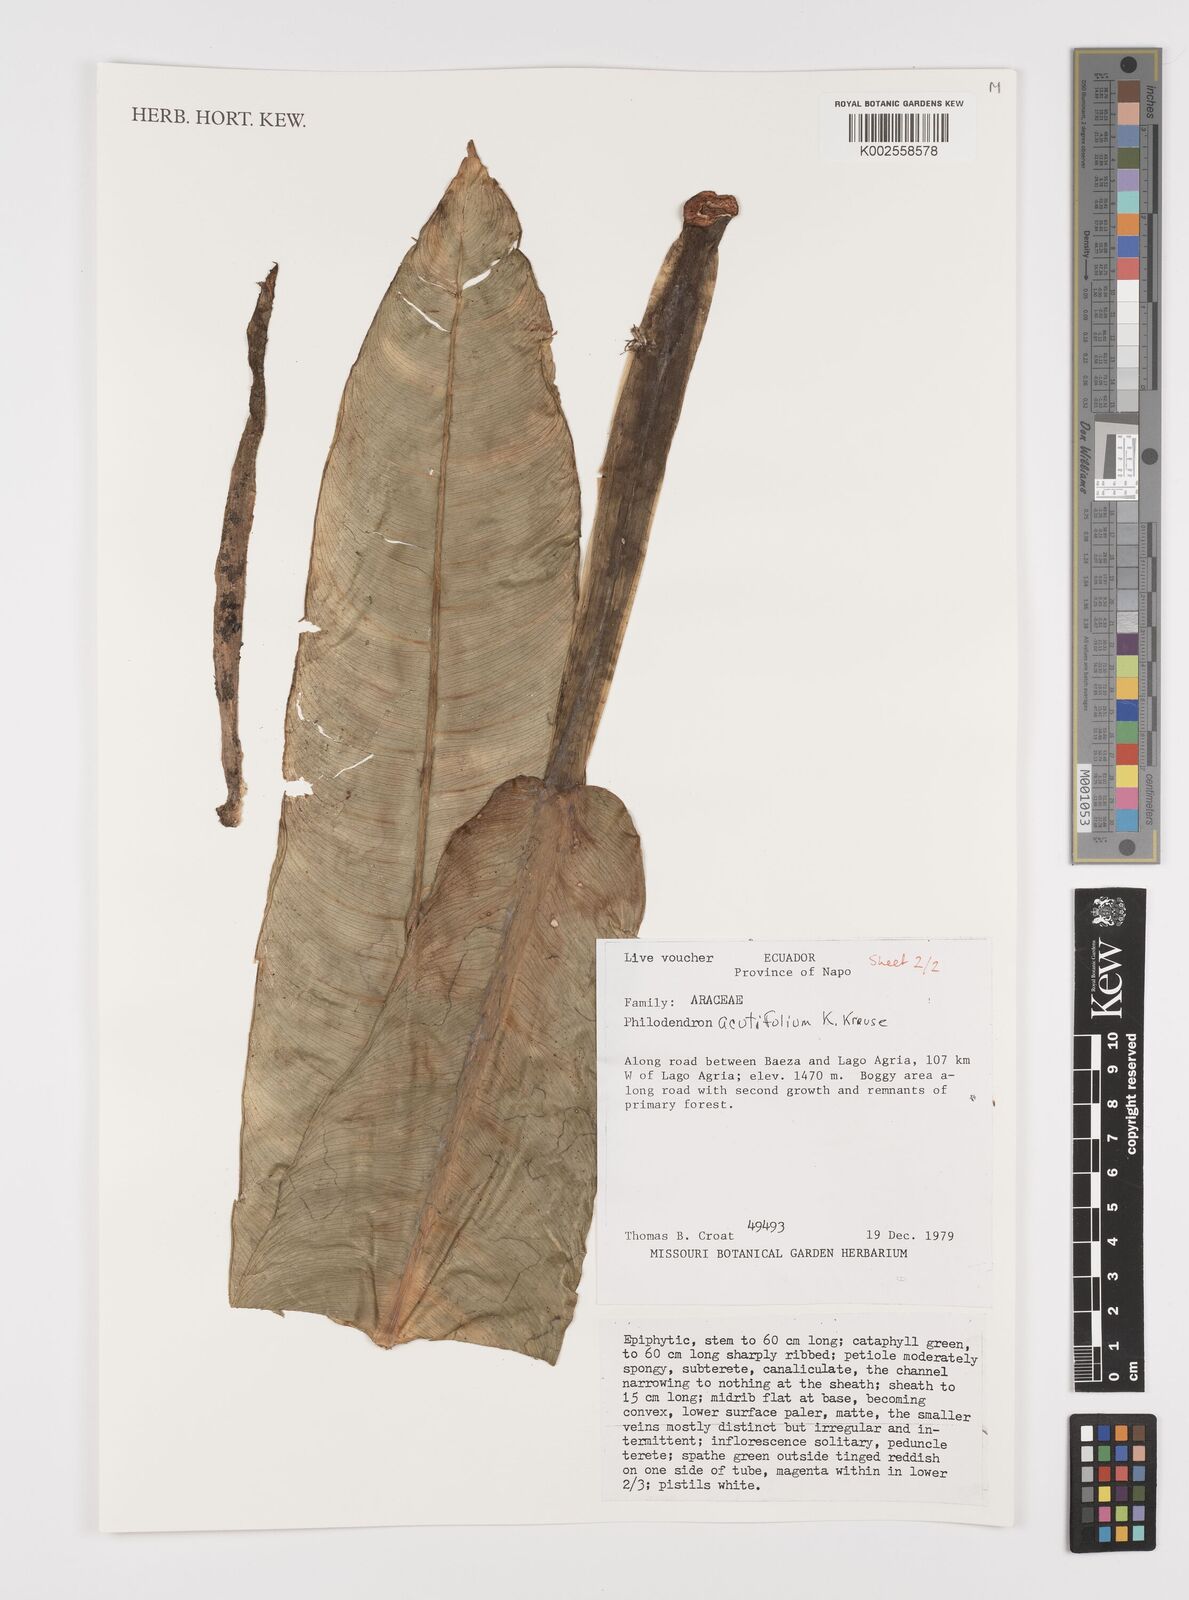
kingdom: Plantae
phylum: Tracheophyta
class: Liliopsida
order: Alismatales
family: Araceae
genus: Philodendron
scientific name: Philodendron acutifolium
